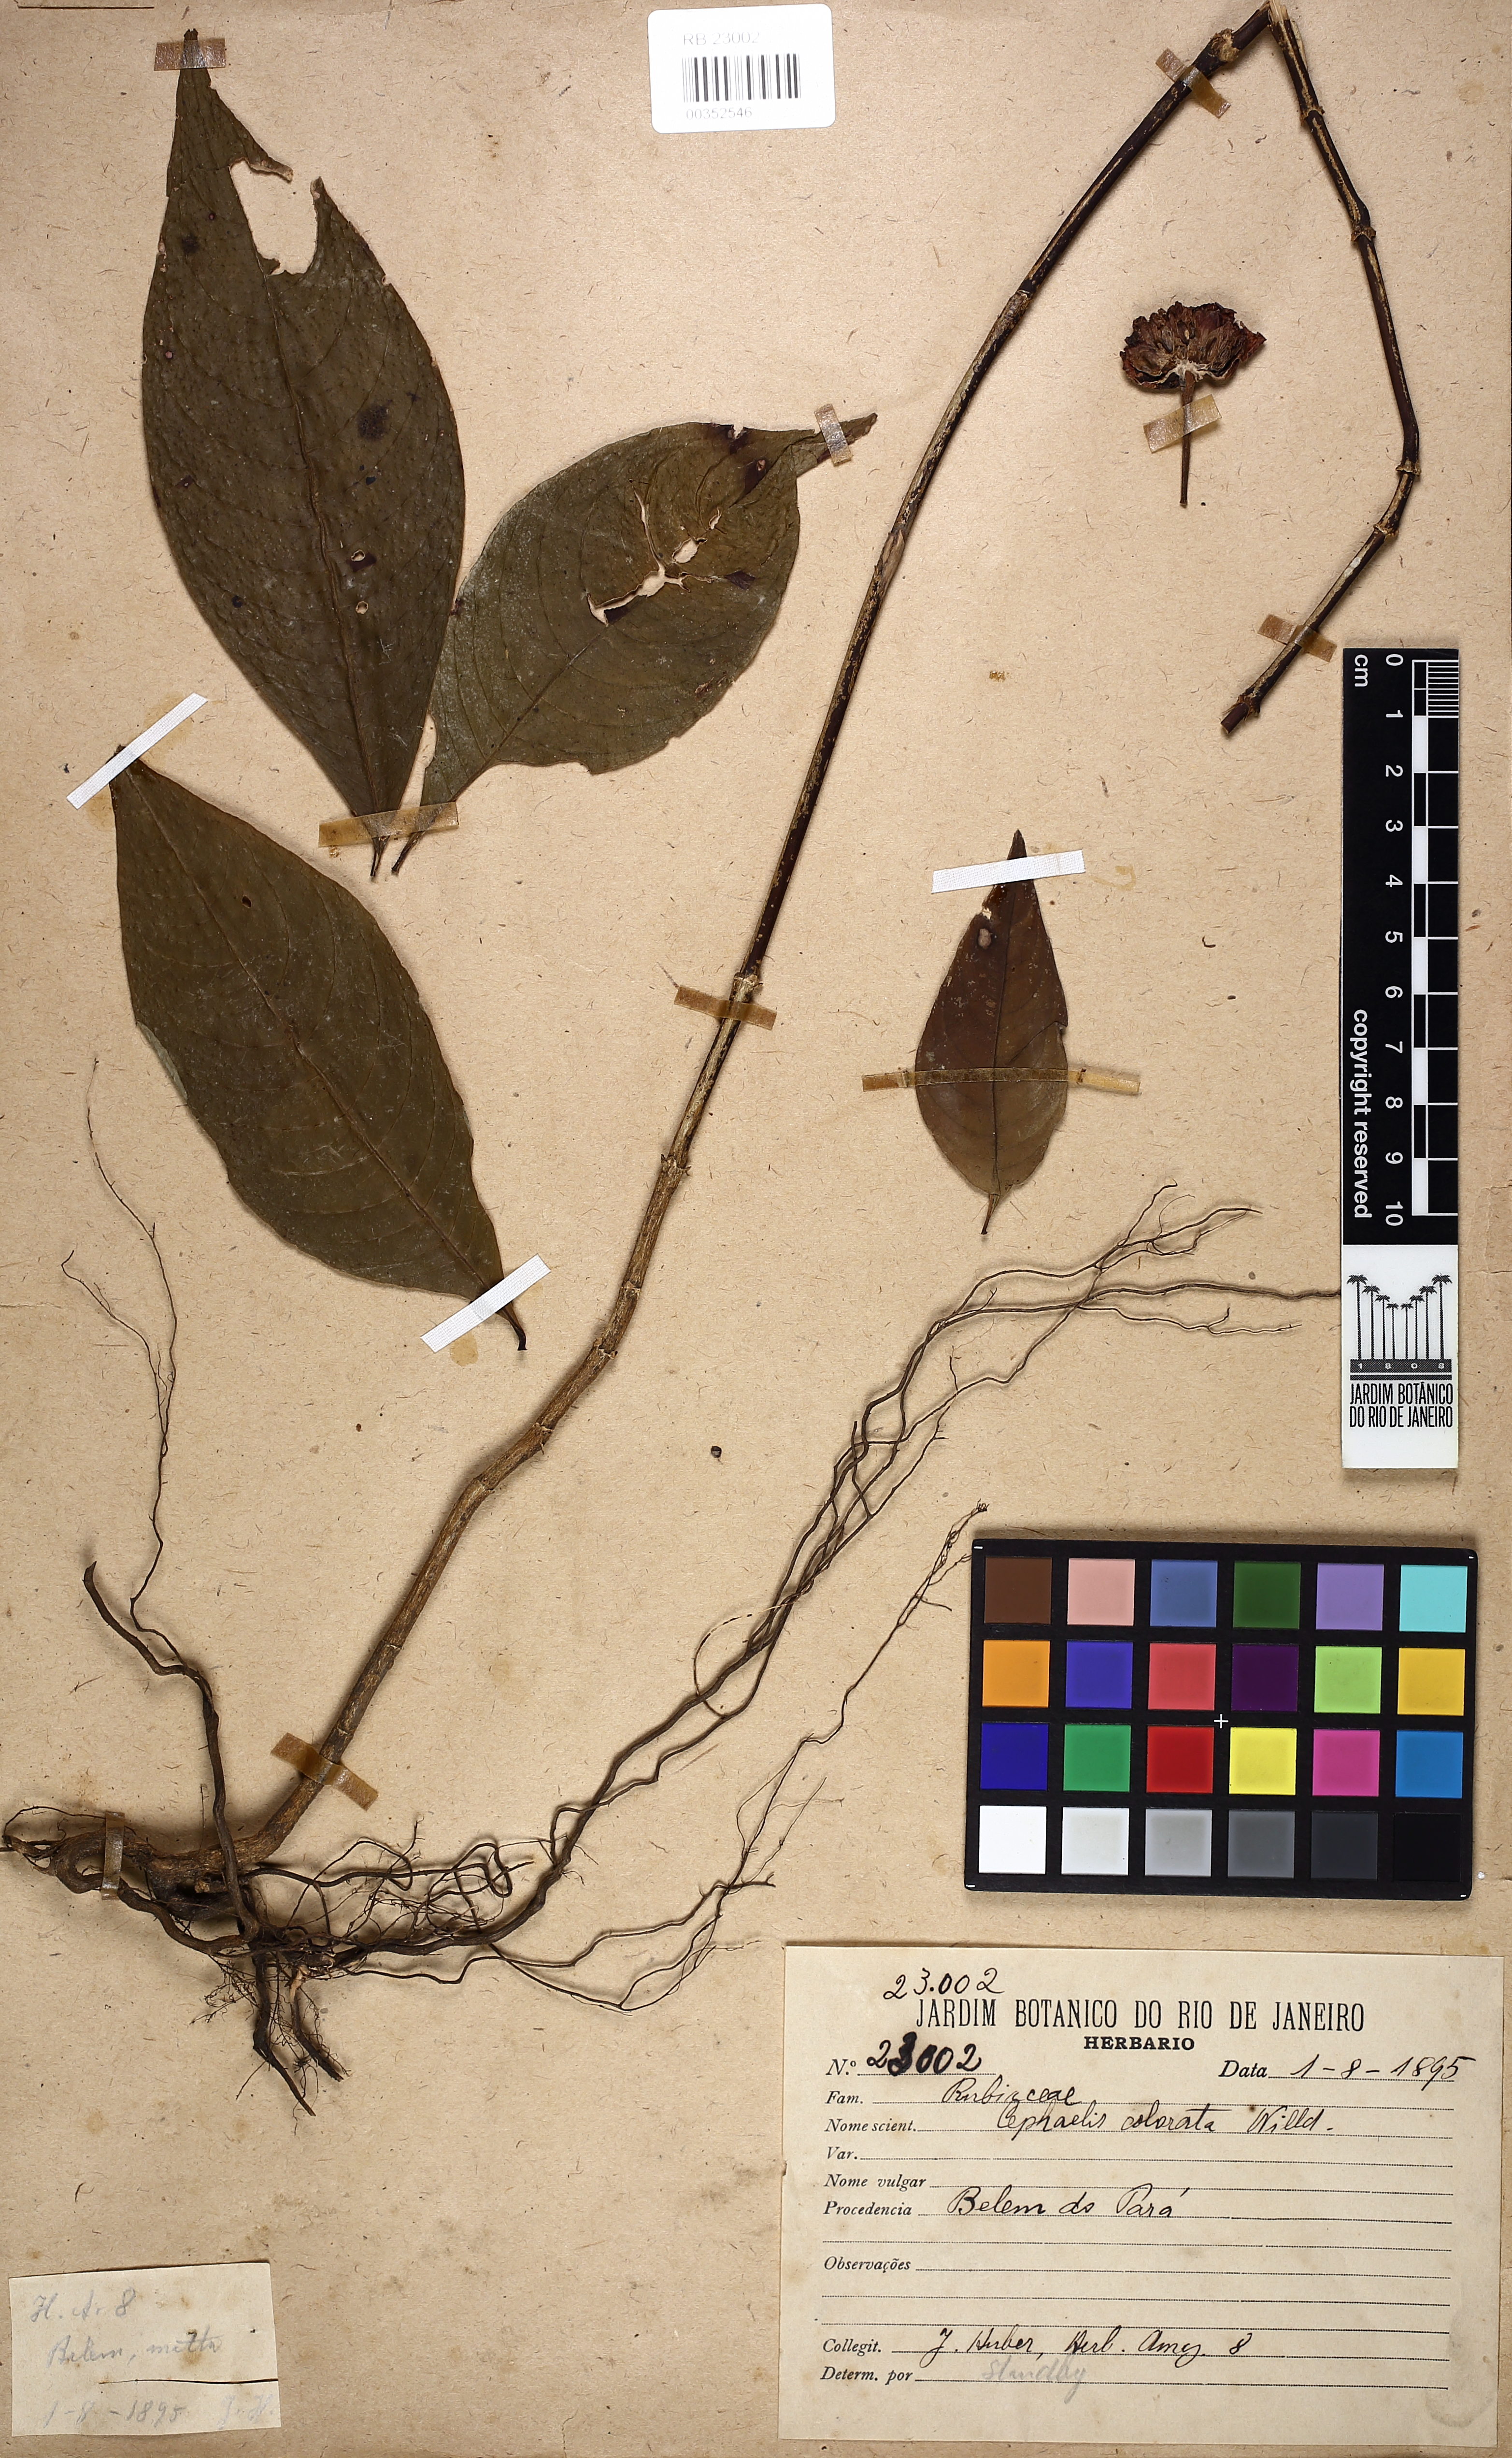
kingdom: Plantae
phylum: Tracheophyta
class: Magnoliopsida
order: Gentianales
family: Rubiaceae
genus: Palicourea
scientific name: Palicourea colorata
